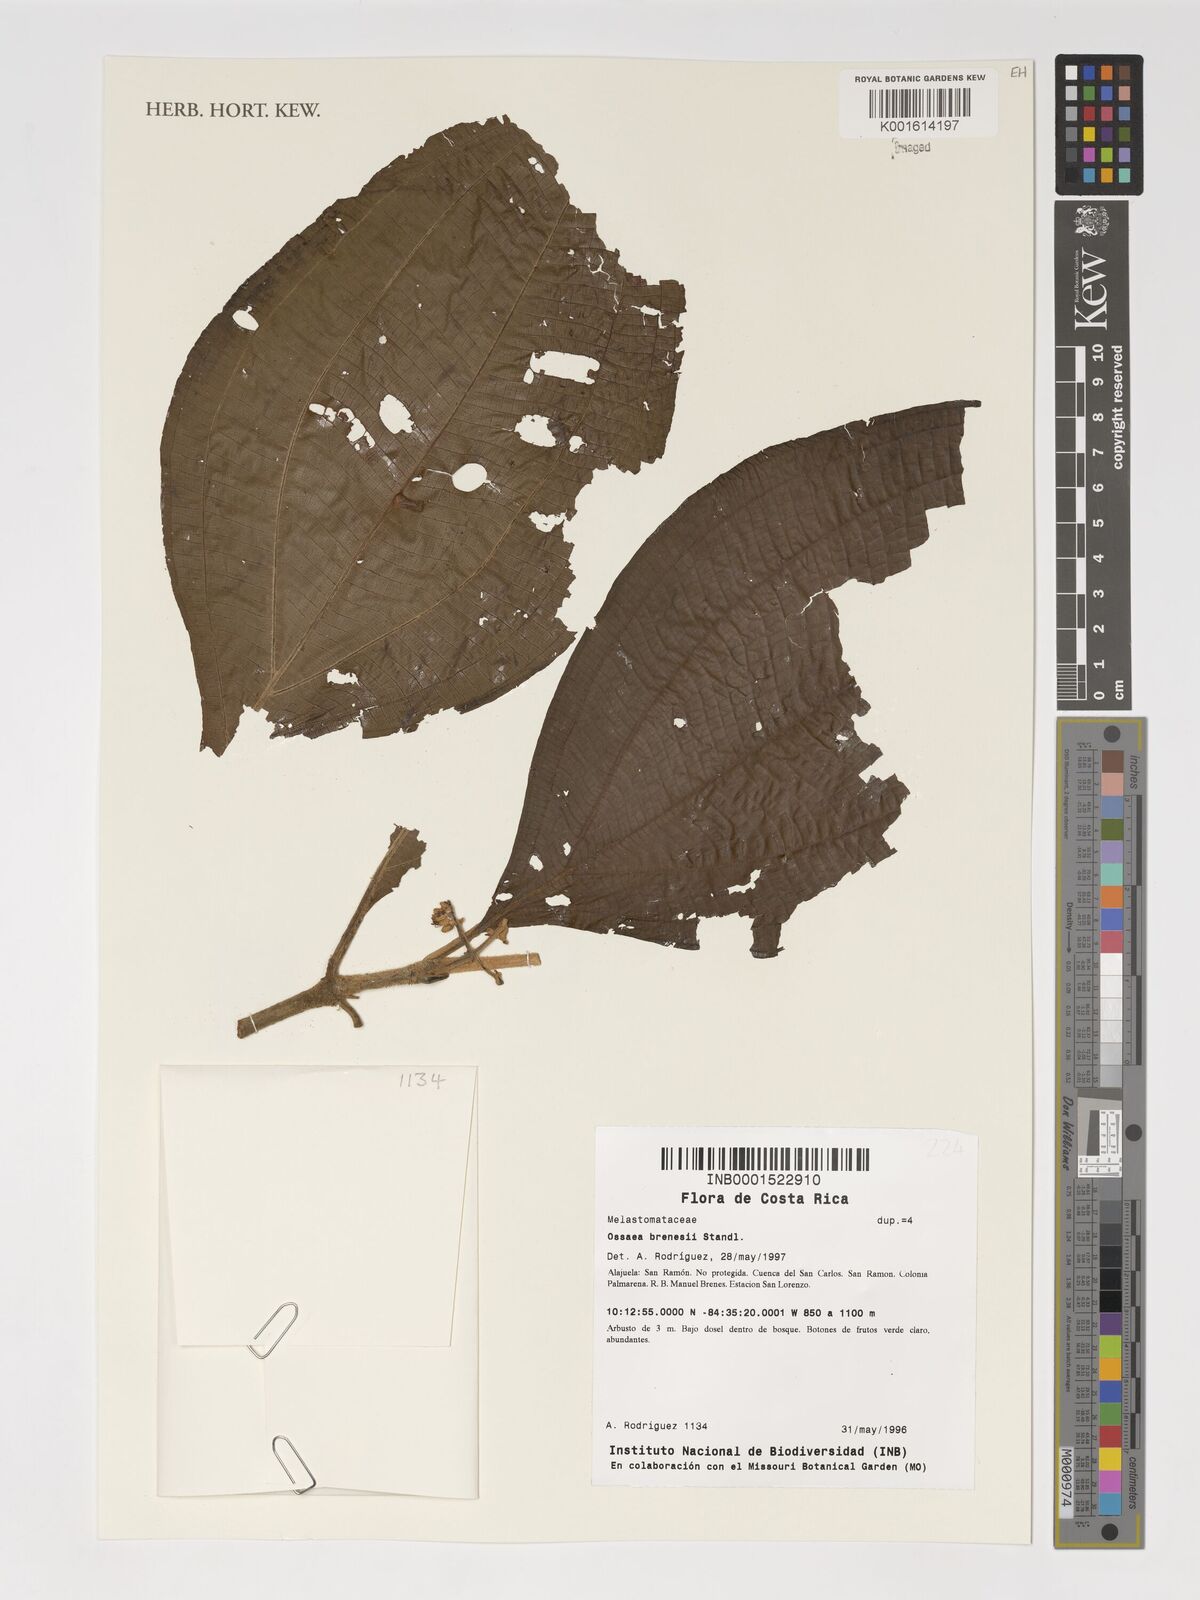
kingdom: Plantae
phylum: Tracheophyta
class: Magnoliopsida
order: Myrtales
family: Melastomataceae
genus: Miconia
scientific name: Miconia albertobrenesii
